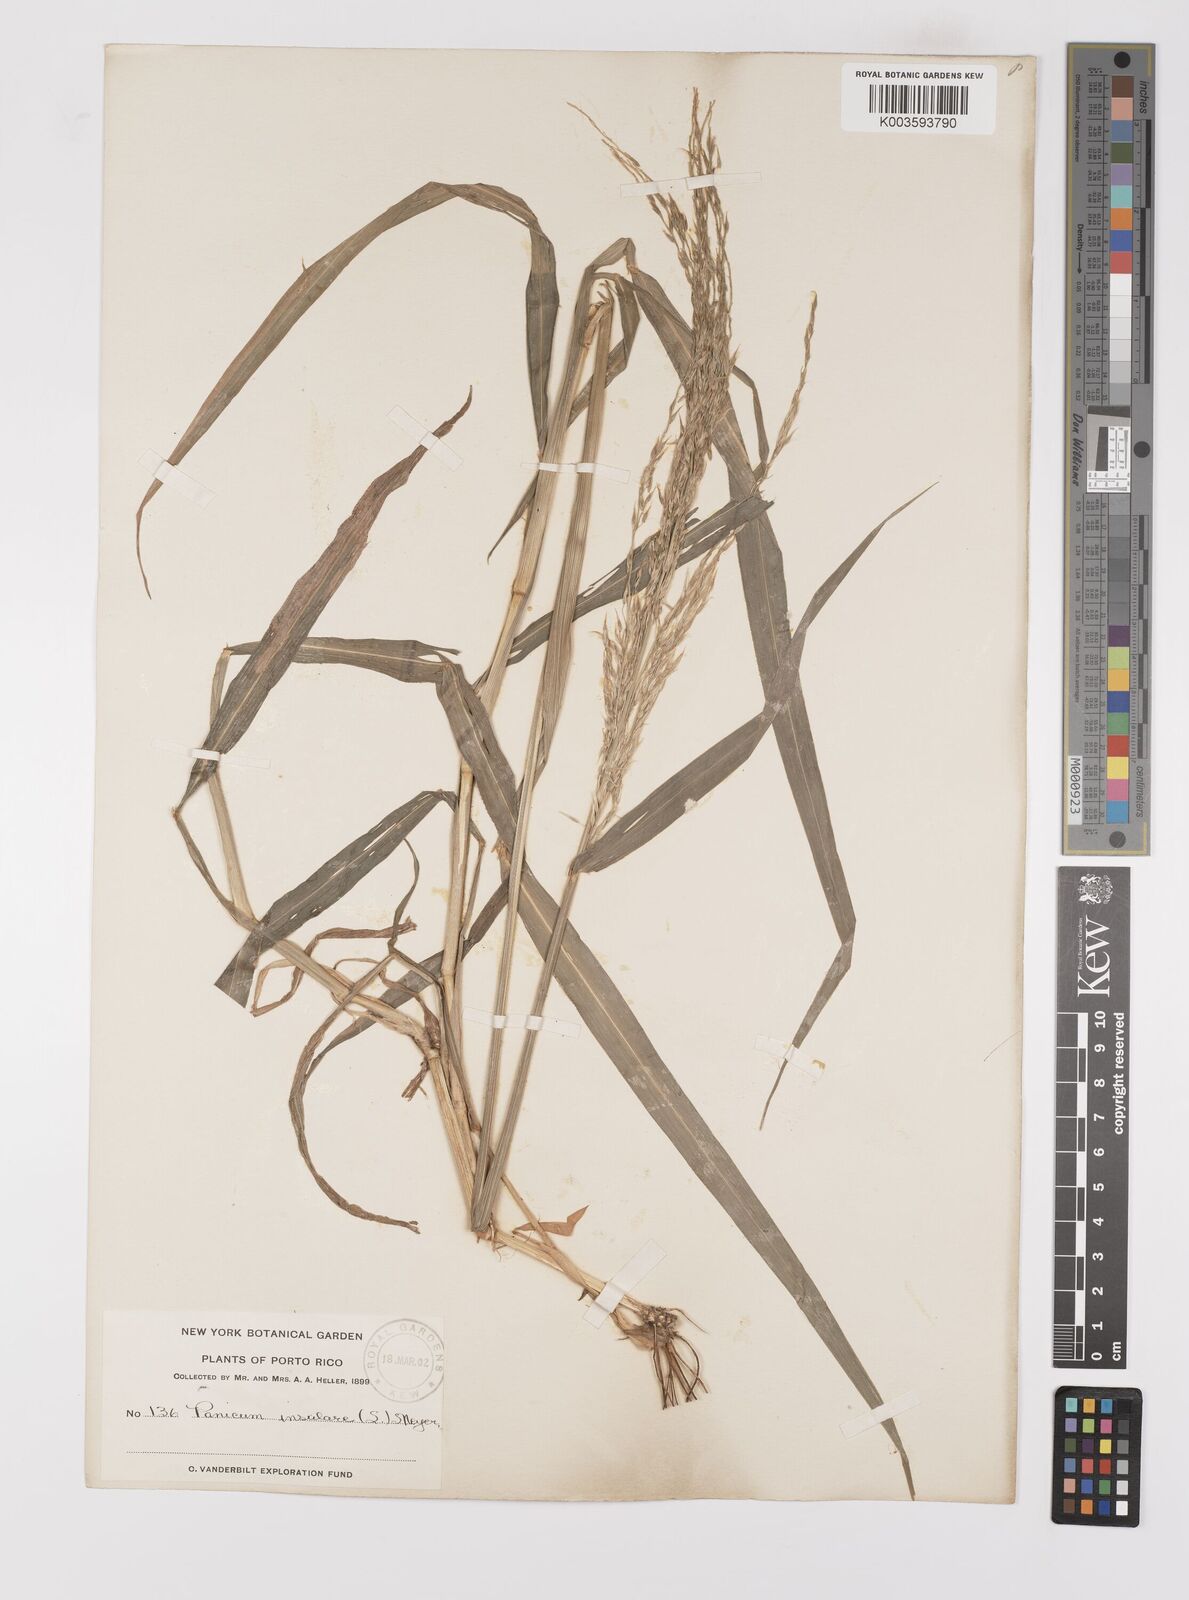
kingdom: Plantae
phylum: Tracheophyta
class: Liliopsida
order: Poales
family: Poaceae
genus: Digitaria
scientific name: Digitaria insularis
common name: Sourgrass
